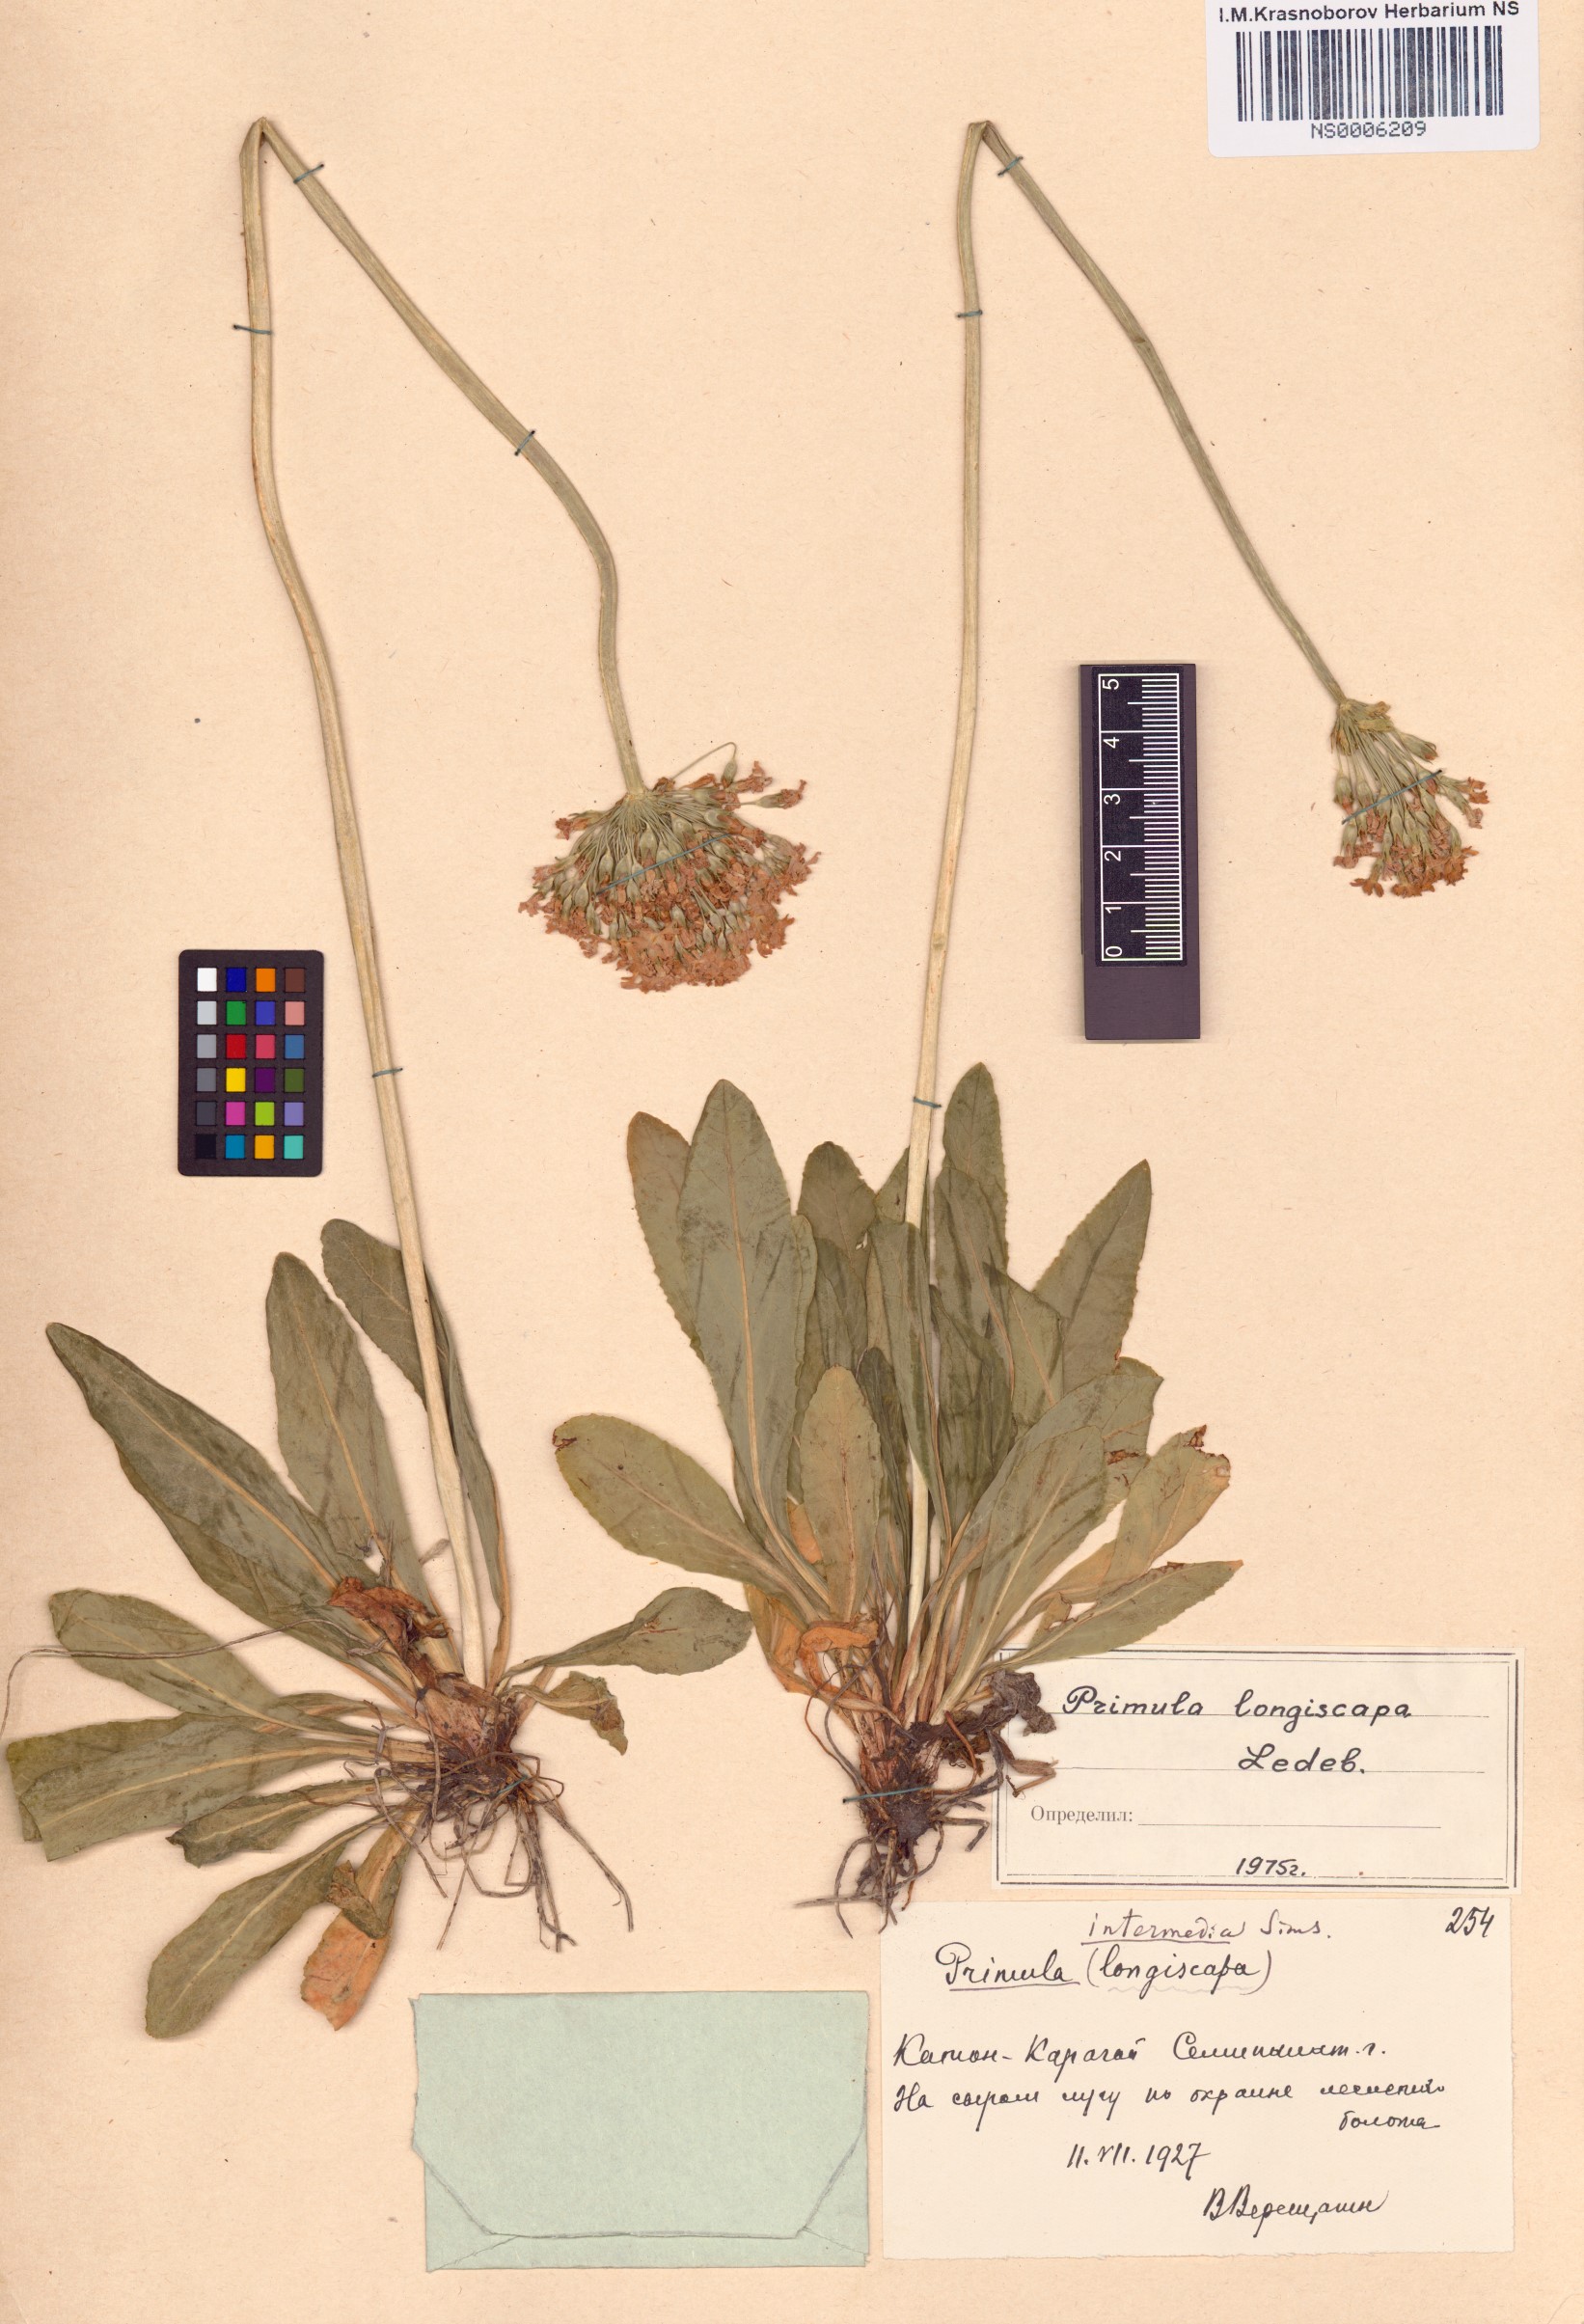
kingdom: Plantae
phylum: Tracheophyta
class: Magnoliopsida
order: Ericales
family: Primulaceae
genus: Primula
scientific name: Primula longiscapa
